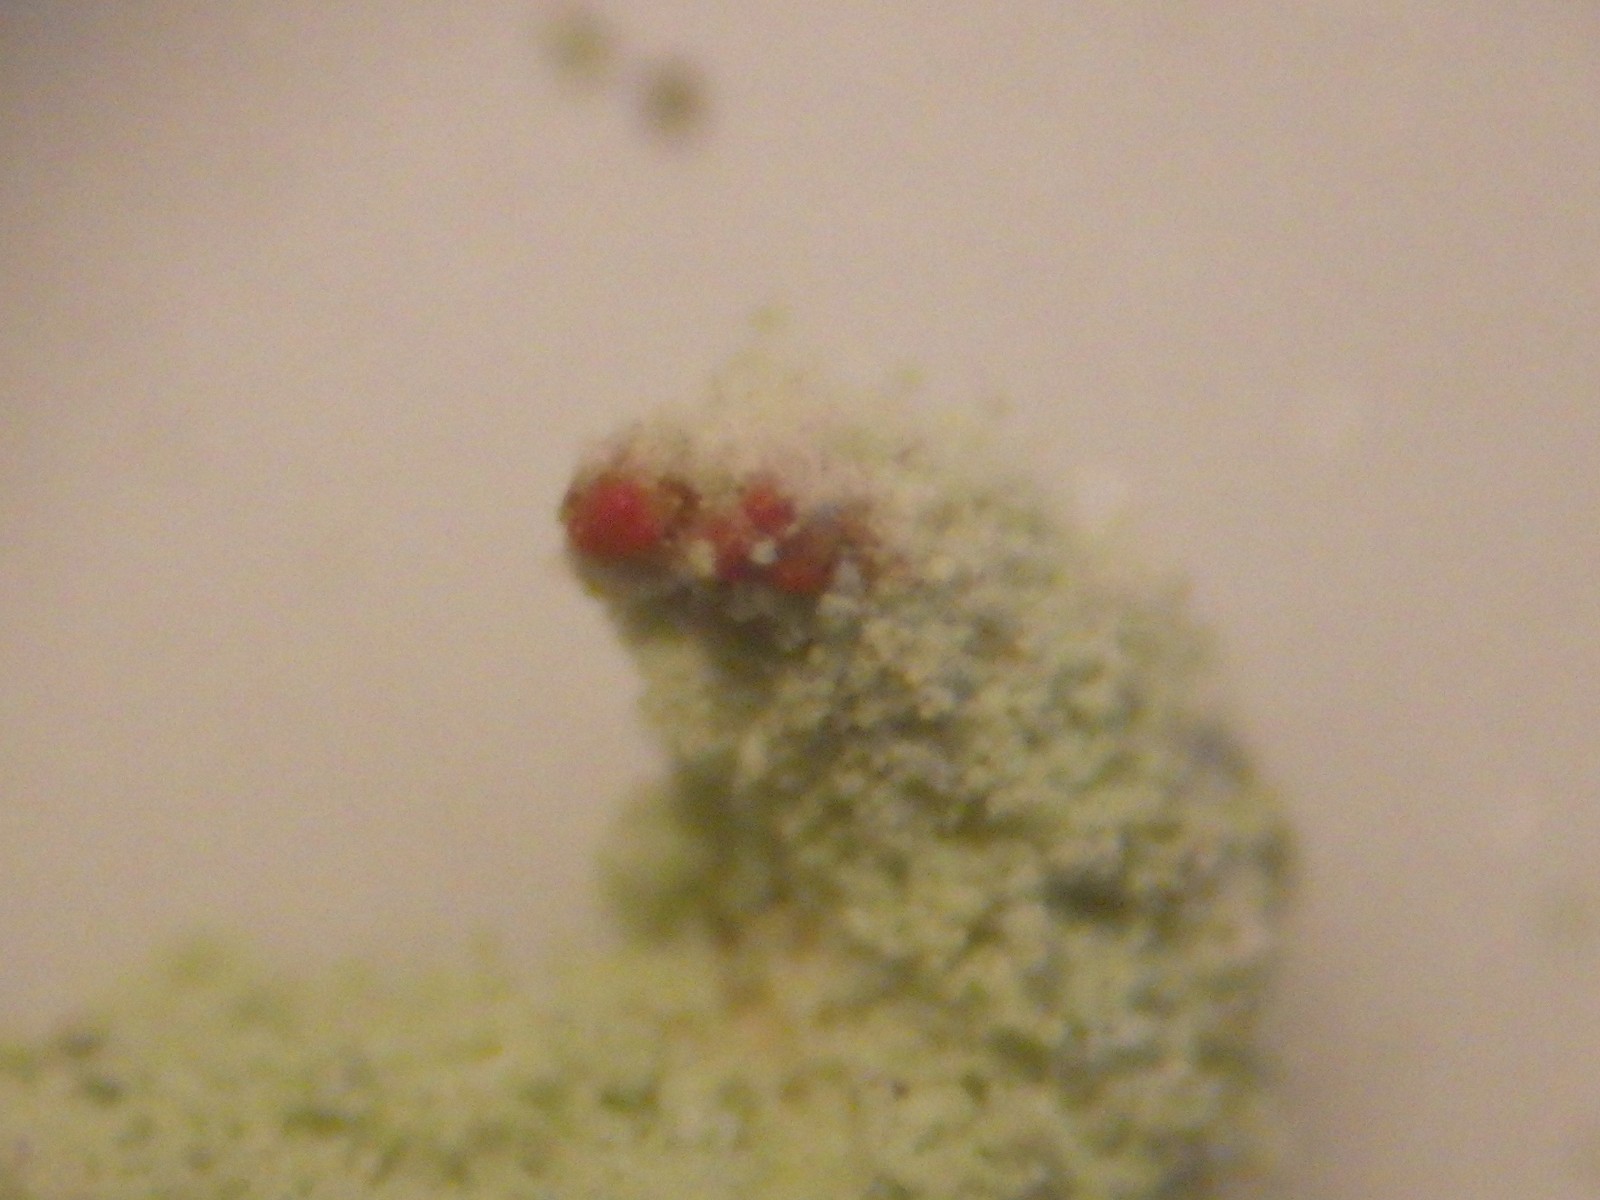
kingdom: Fungi
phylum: Ascomycota
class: Lecanoromycetes
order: Lecanorales
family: Cladoniaceae
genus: Cladonia
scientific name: Cladonia macilenta
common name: indsvunden bægerlav
